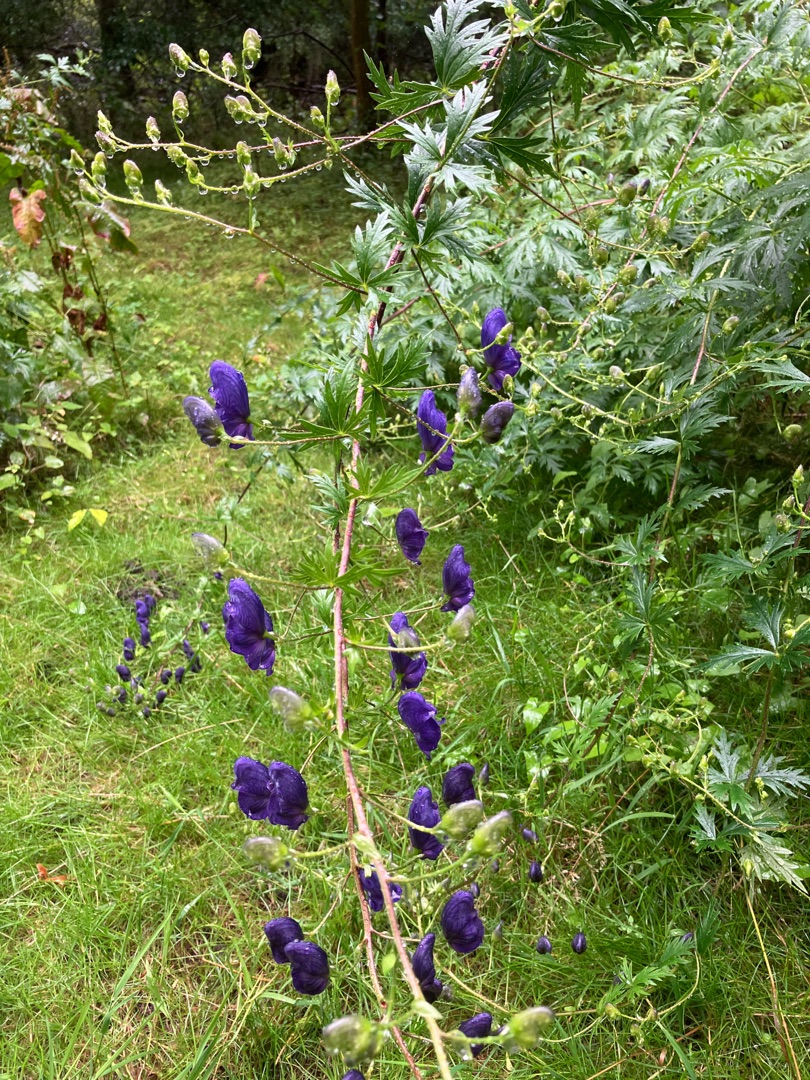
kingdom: Plantae
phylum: Tracheophyta
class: Magnoliopsida
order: Ranunculales
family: Ranunculaceae
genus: Aconitum
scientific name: Aconitum cammarum
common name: Have-stormhat
